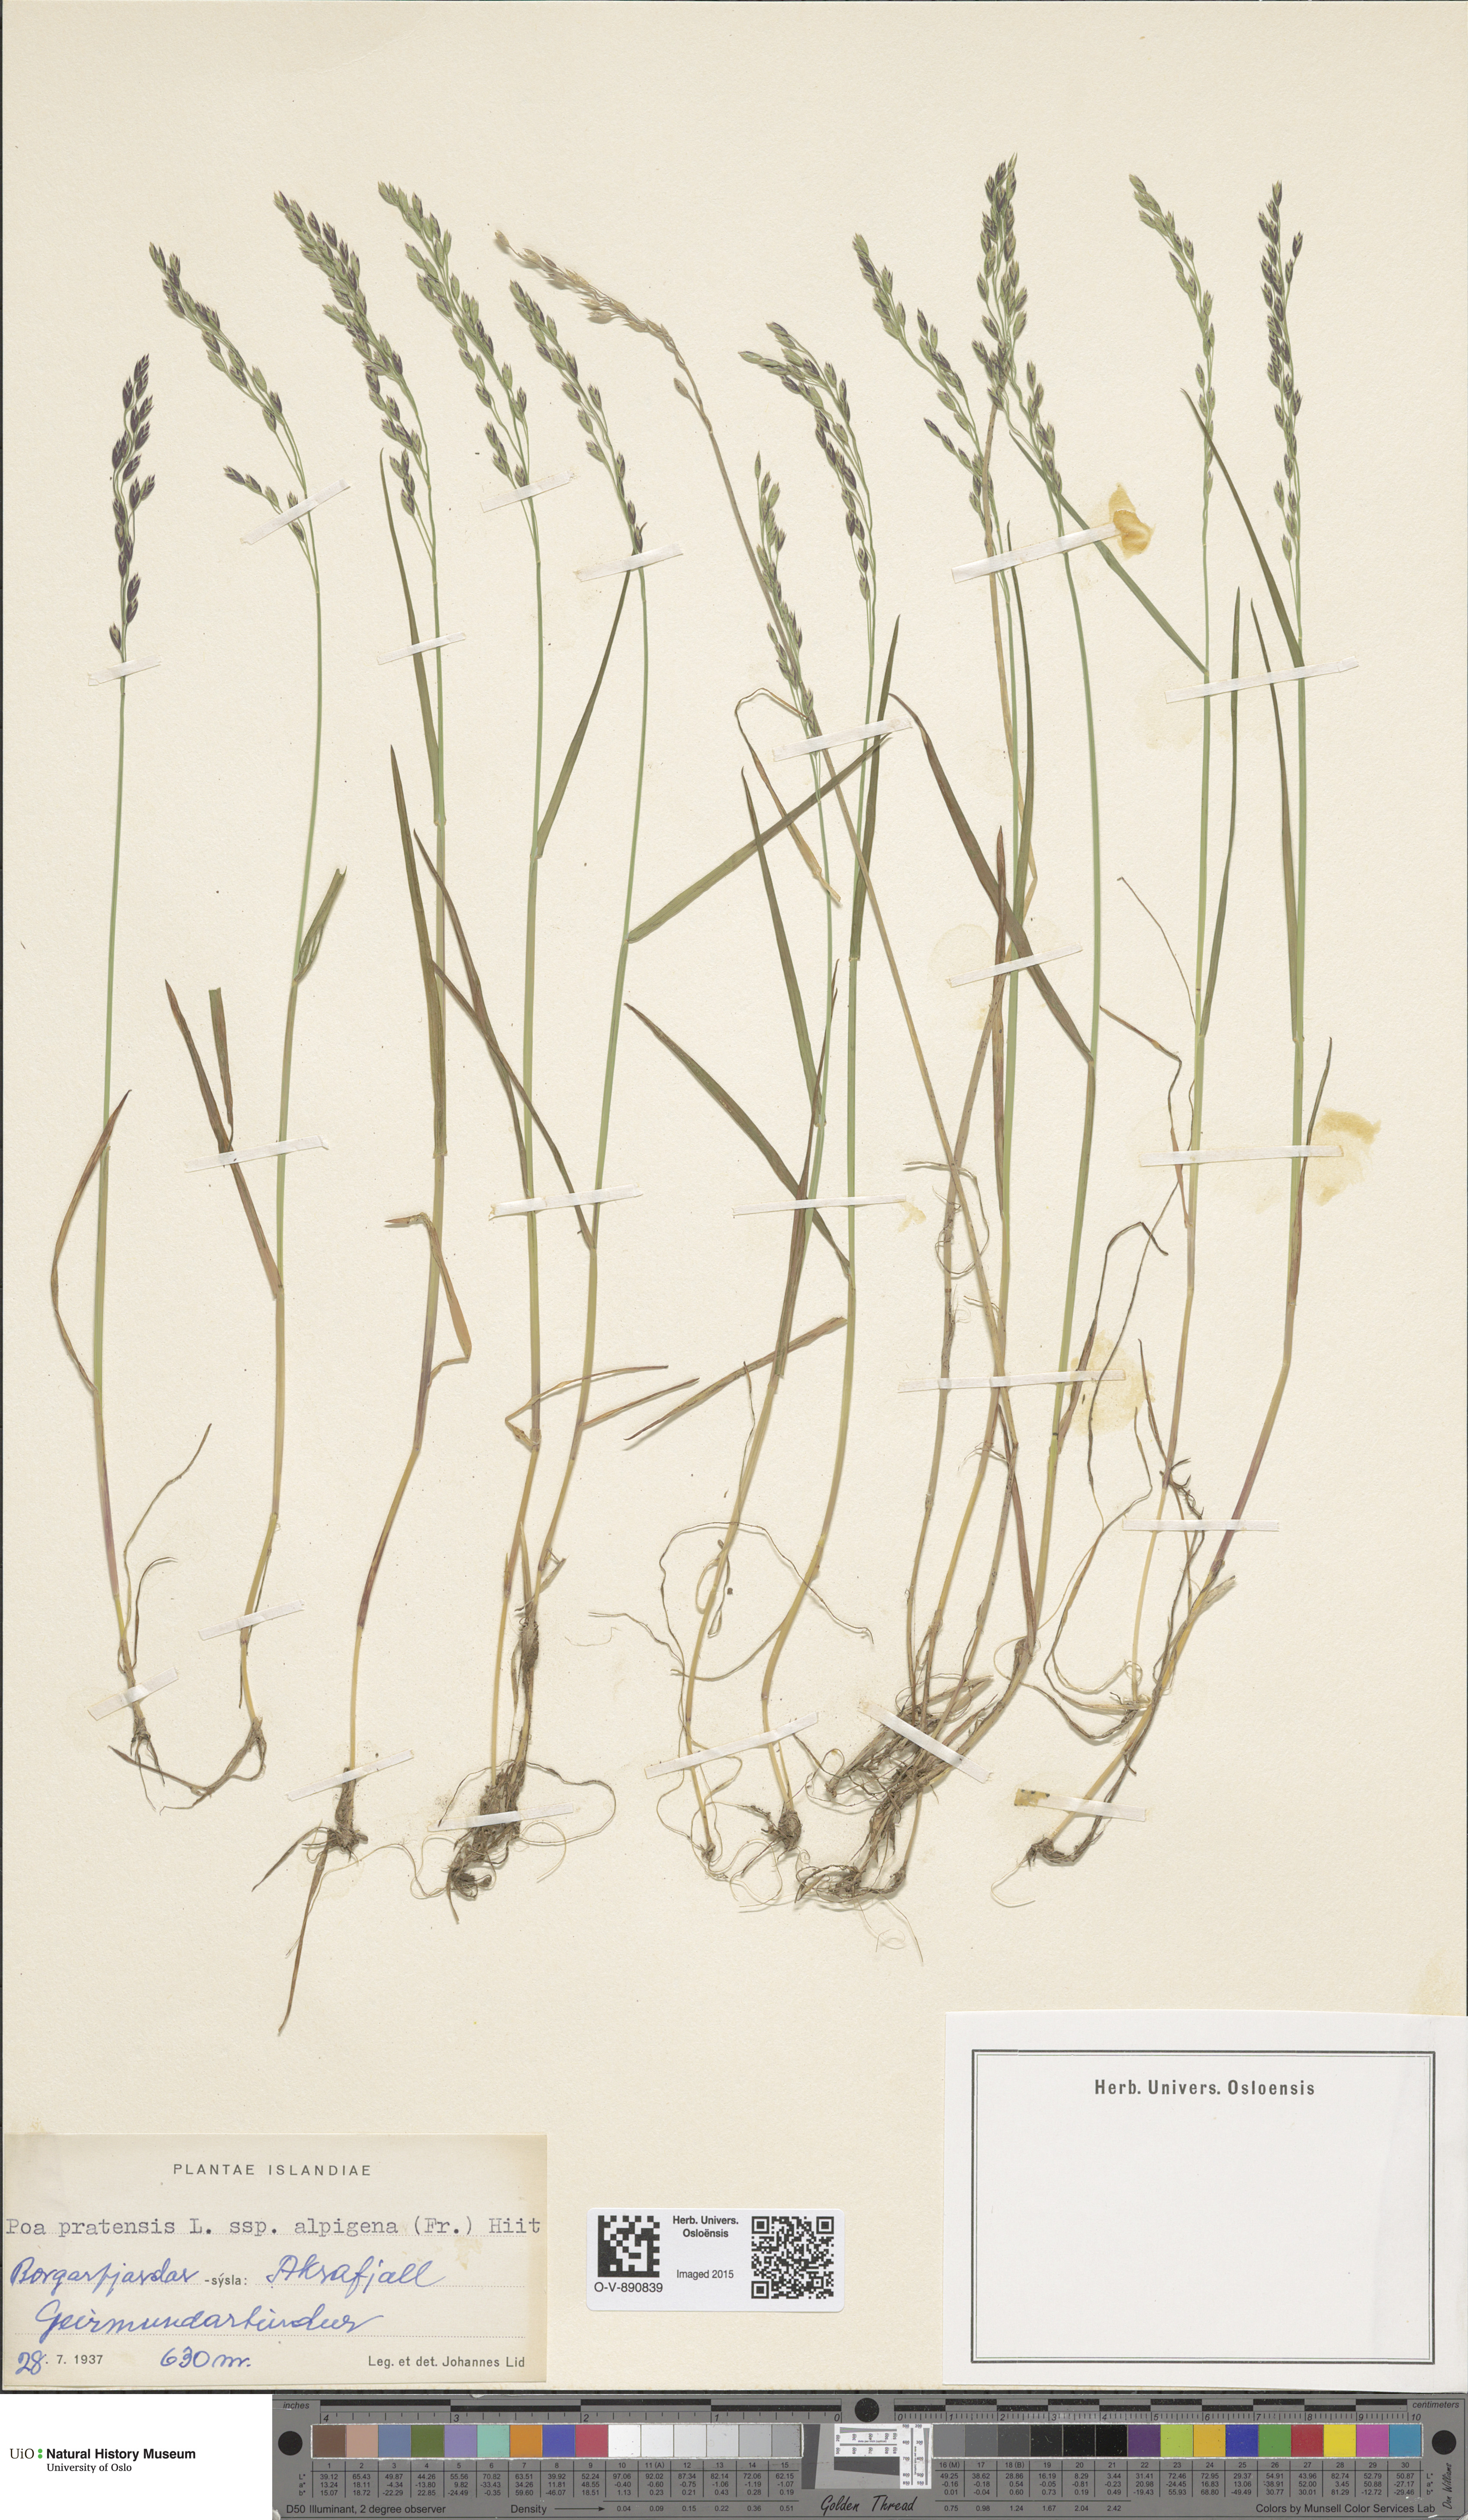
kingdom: Plantae
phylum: Tracheophyta
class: Liliopsida
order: Poales
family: Poaceae
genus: Poa
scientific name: Poa alpigena
